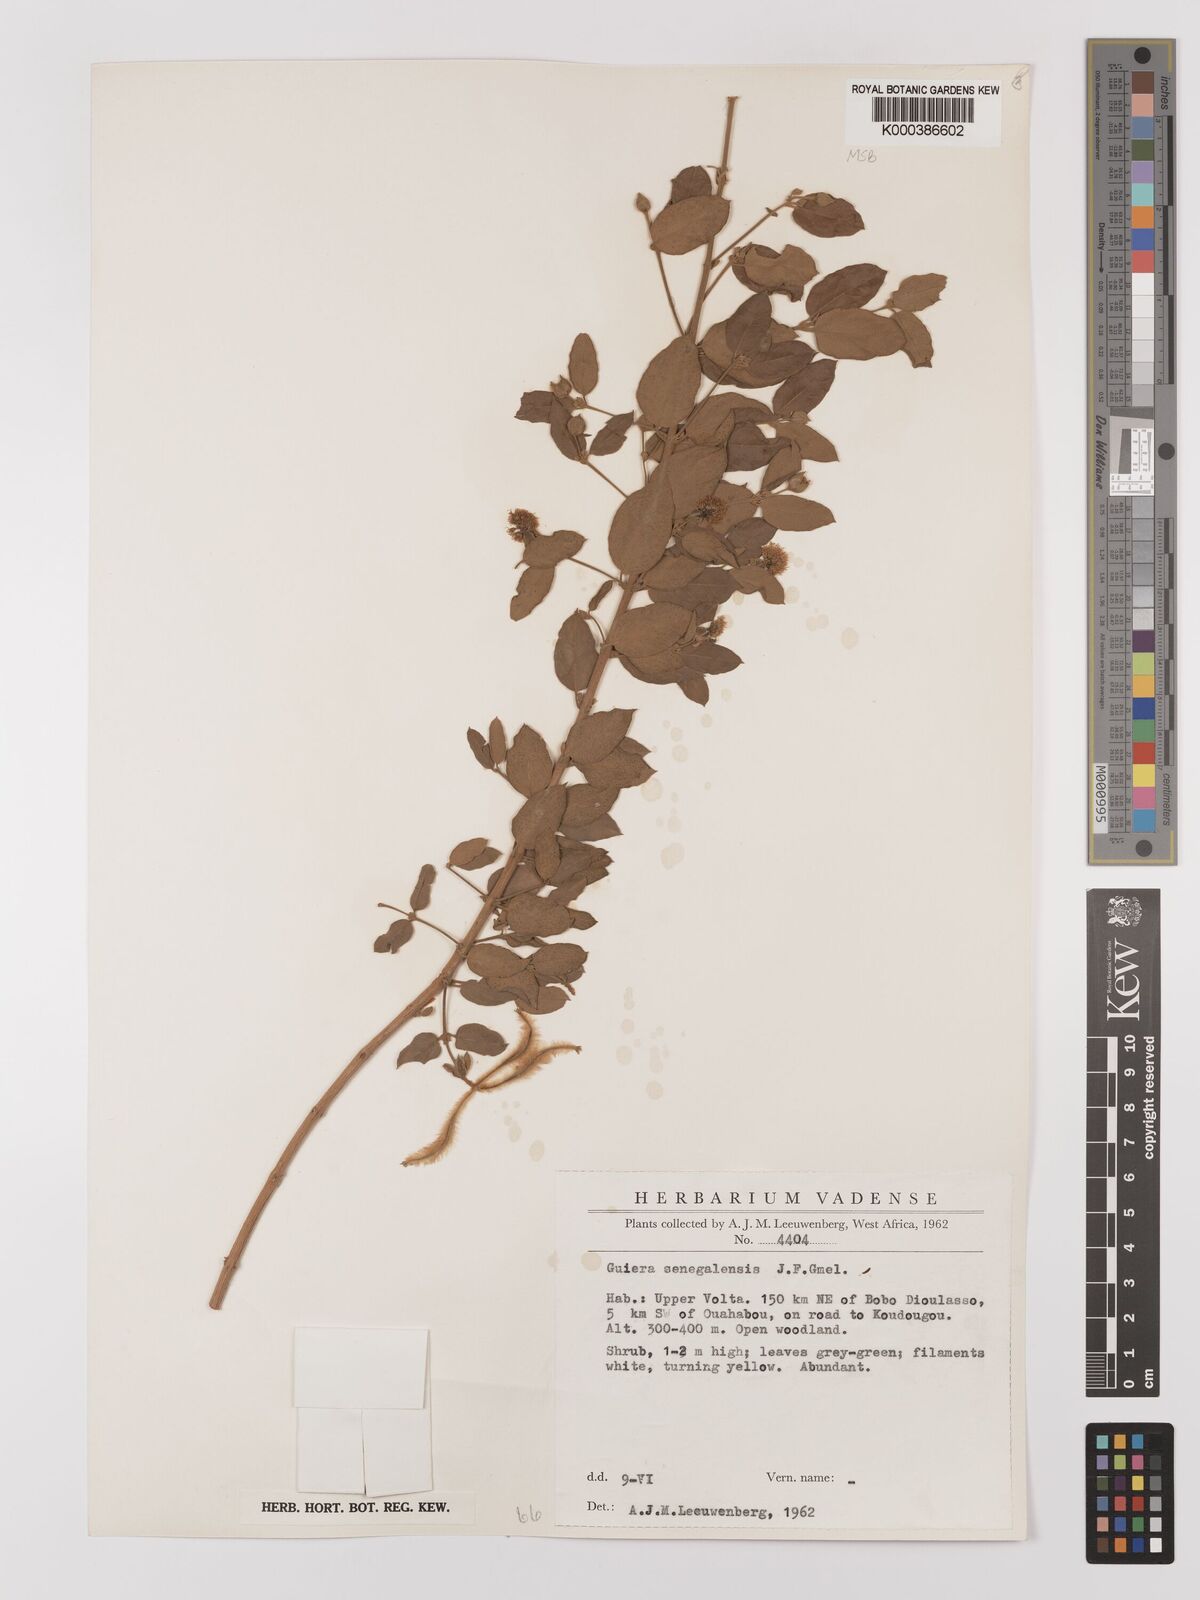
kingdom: Plantae
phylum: Tracheophyta
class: Magnoliopsida
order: Myrtales
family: Combretaceae
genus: Guiera
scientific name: Guiera senegalensis
